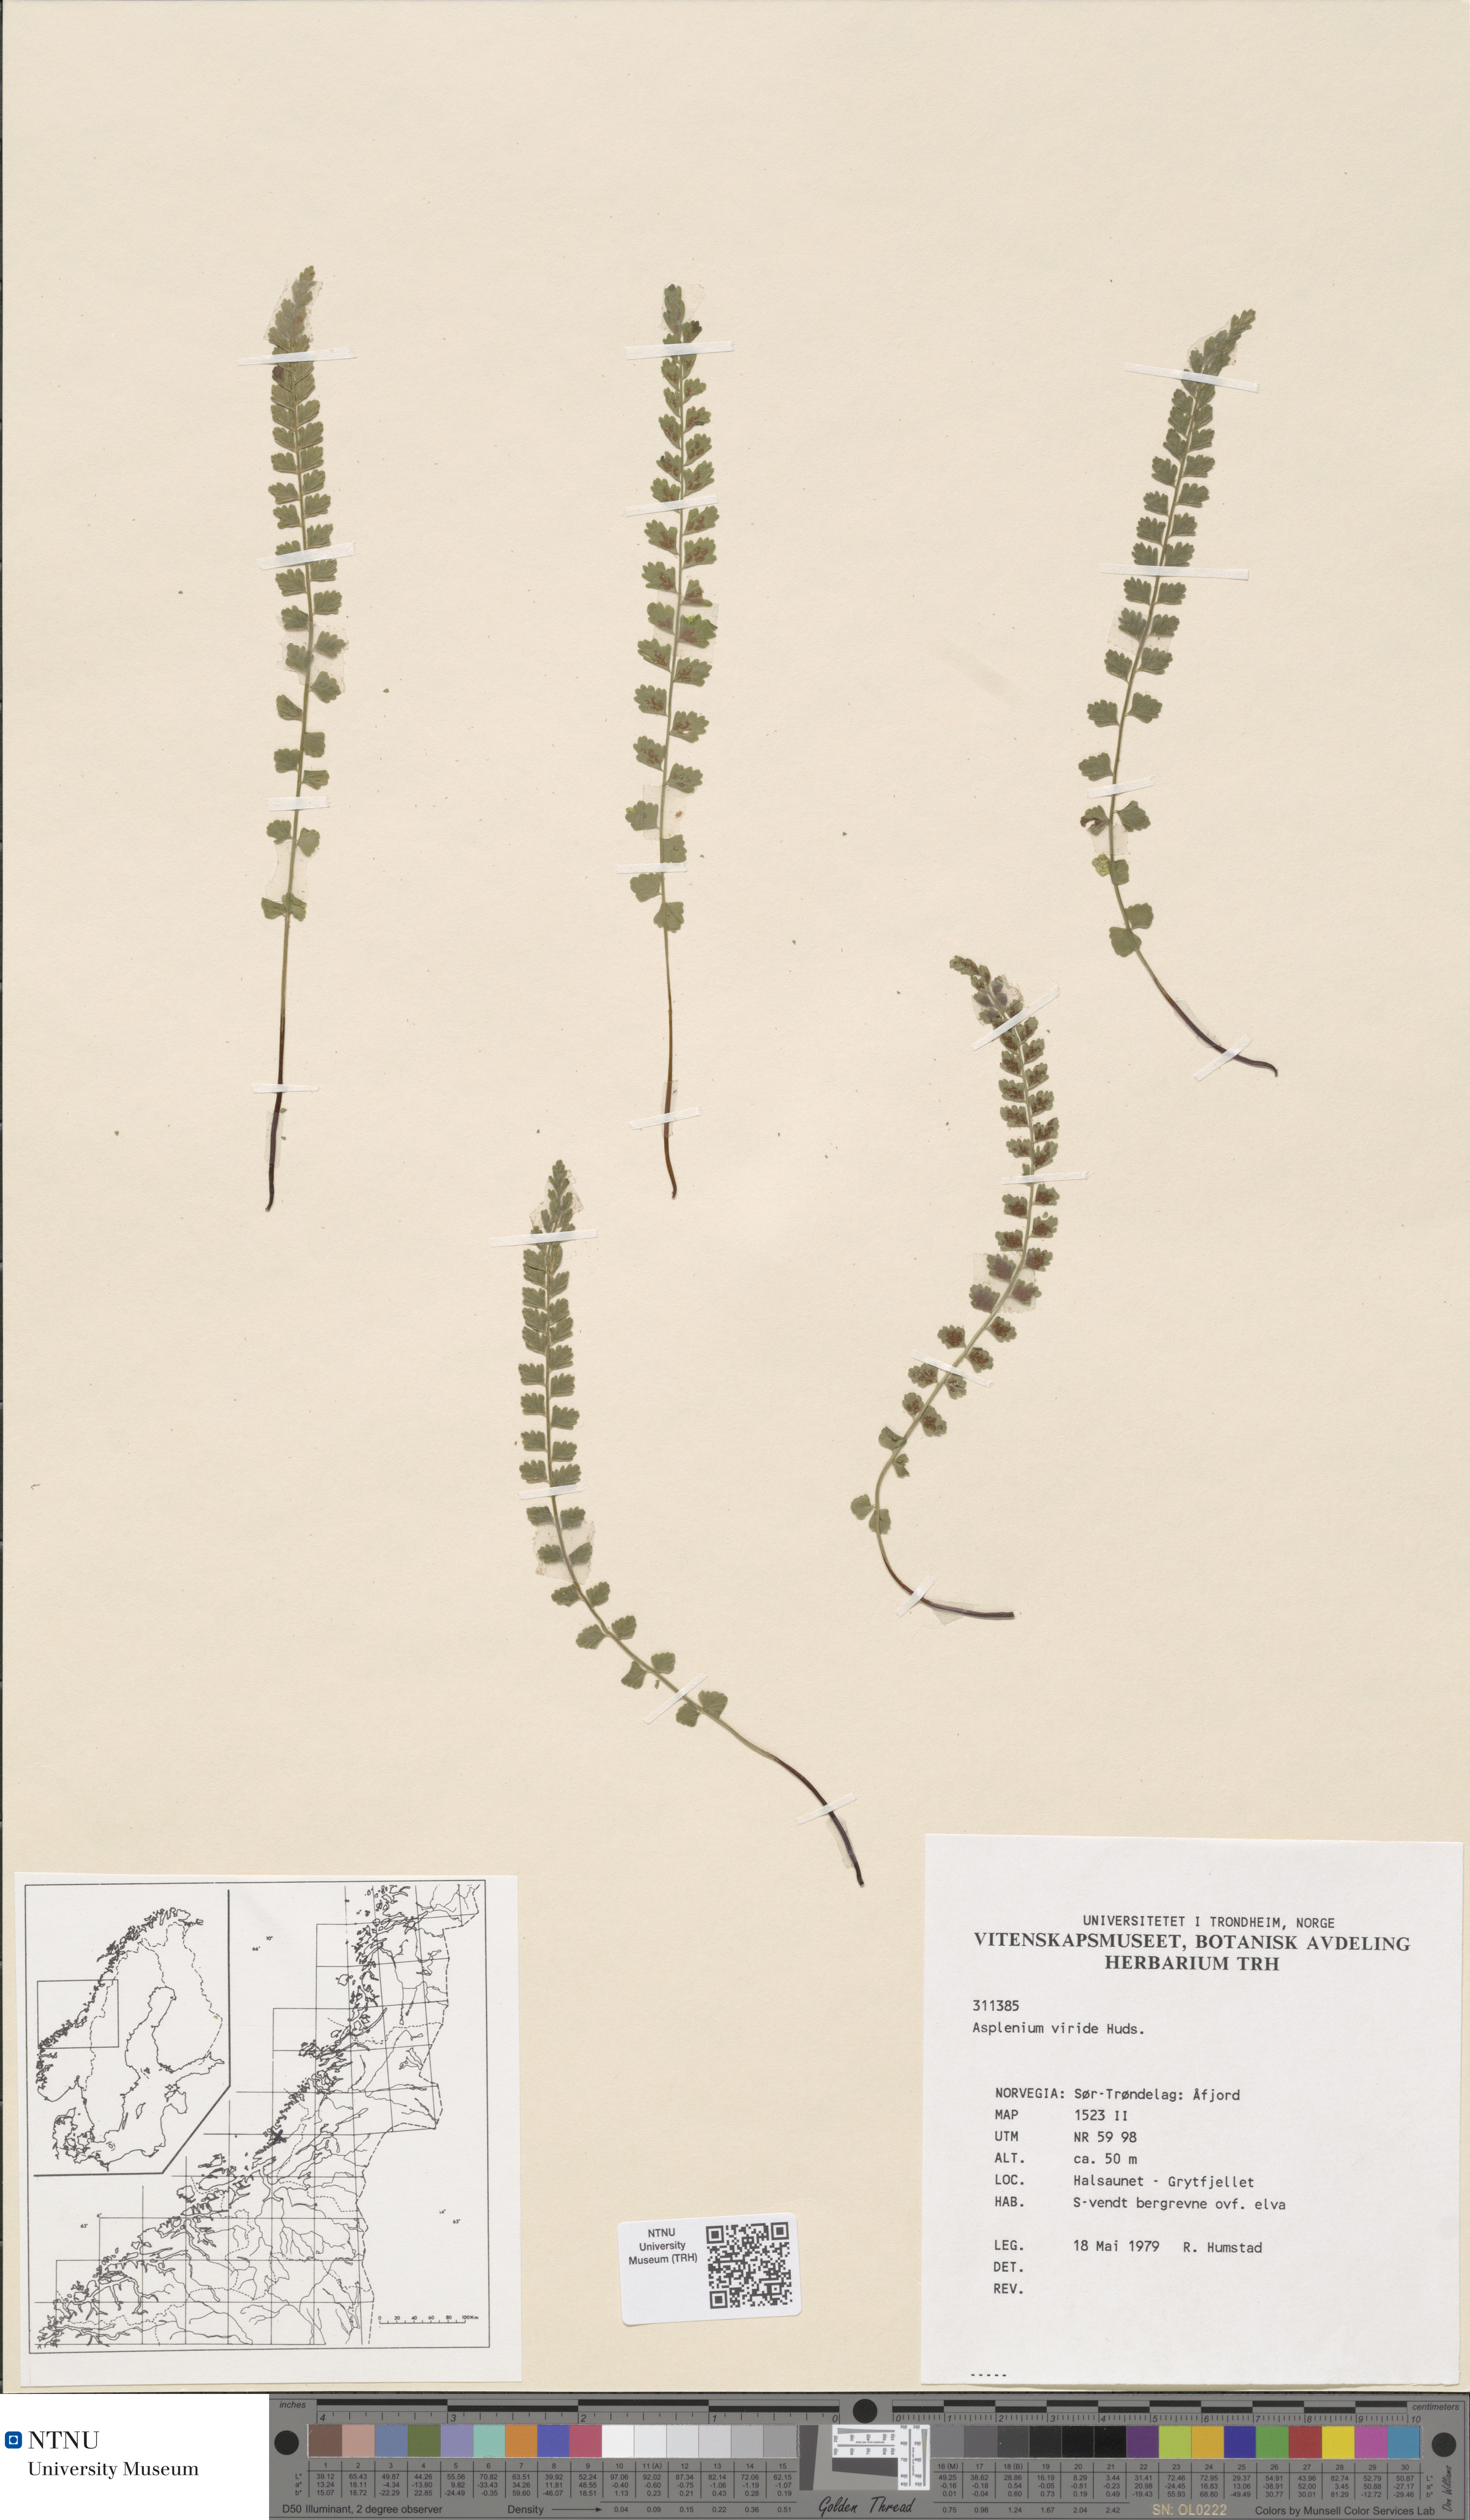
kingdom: Plantae
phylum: Tracheophyta
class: Polypodiopsida
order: Polypodiales
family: Aspleniaceae
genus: Asplenium
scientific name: Asplenium viride
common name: Green spleenwort
